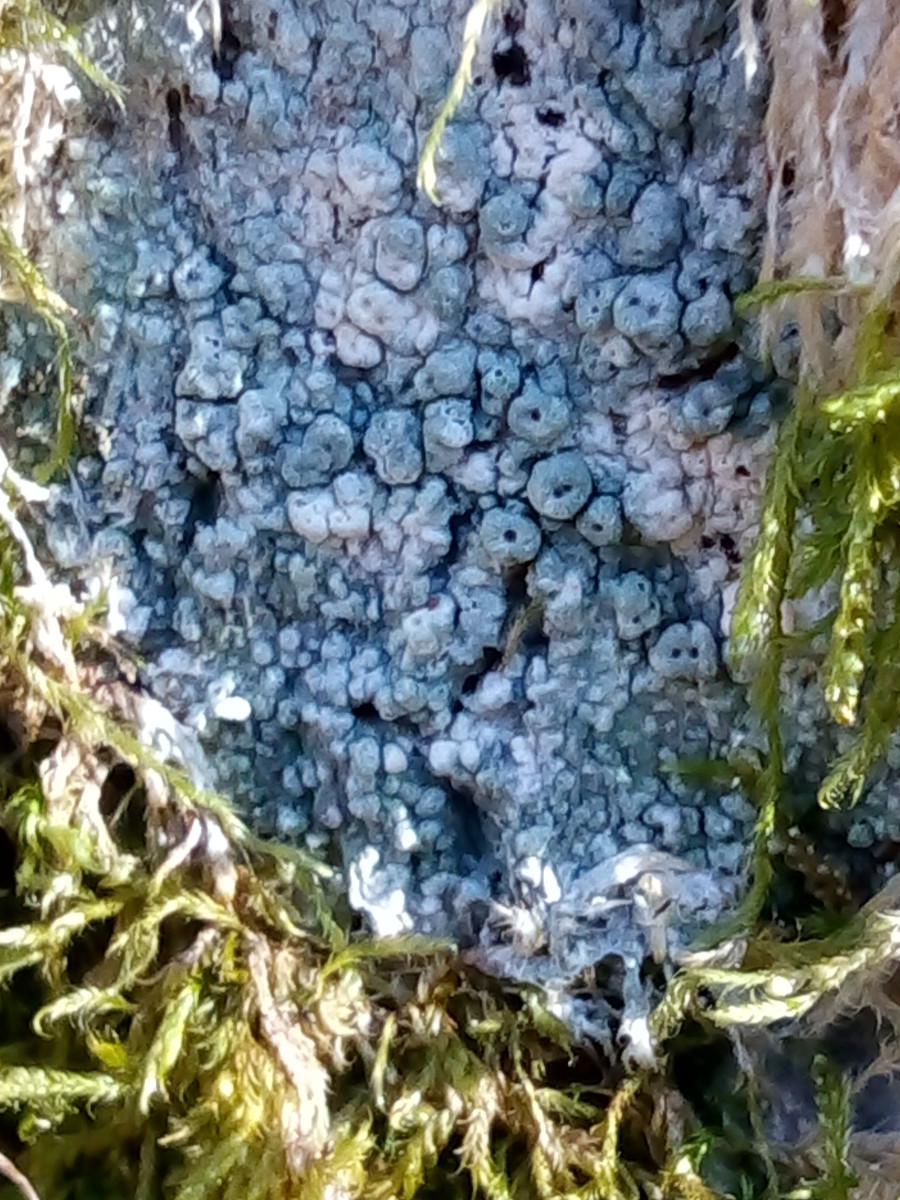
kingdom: Fungi
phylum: Ascomycota
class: Lecanoromycetes
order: Pertusariales
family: Pertusariaceae
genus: Pertusaria
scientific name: Pertusaria pertusa
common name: almindelig prikvortelav
